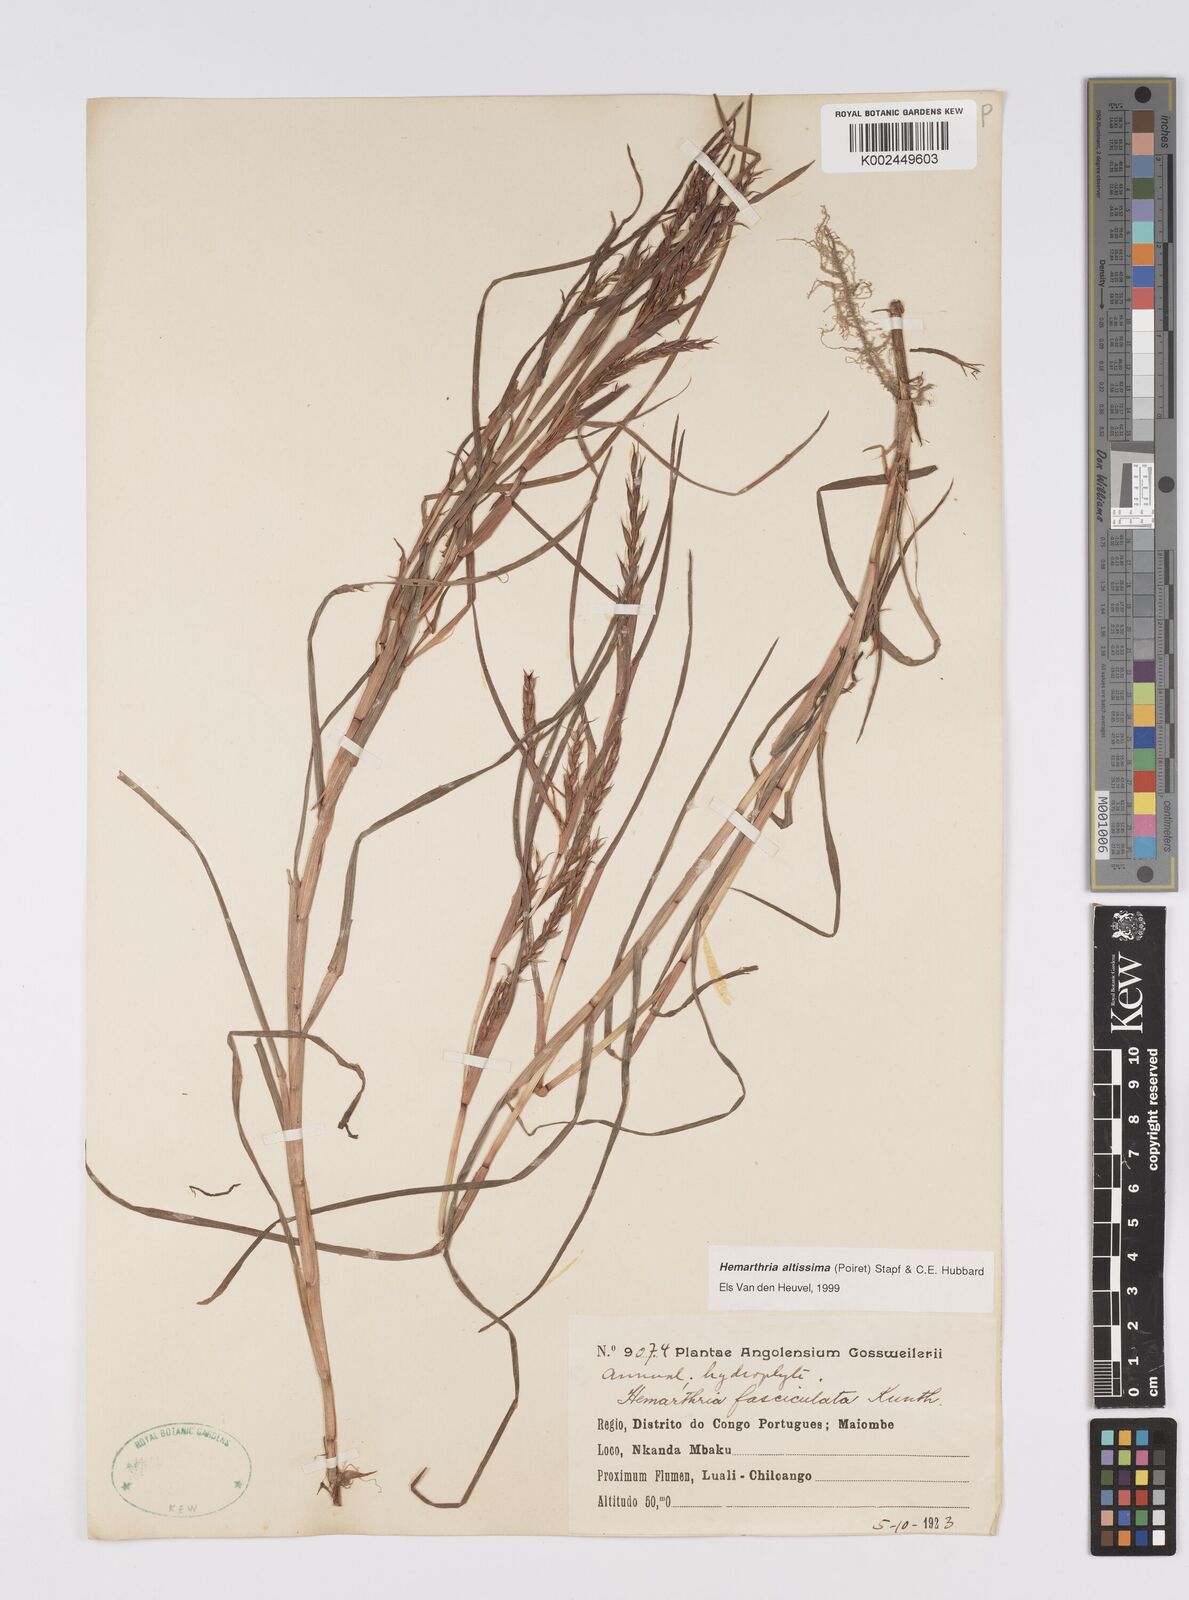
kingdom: Plantae
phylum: Tracheophyta
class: Liliopsida
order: Poales
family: Poaceae
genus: Hemarthria
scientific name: Hemarthria altissima
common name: African jointgrass
